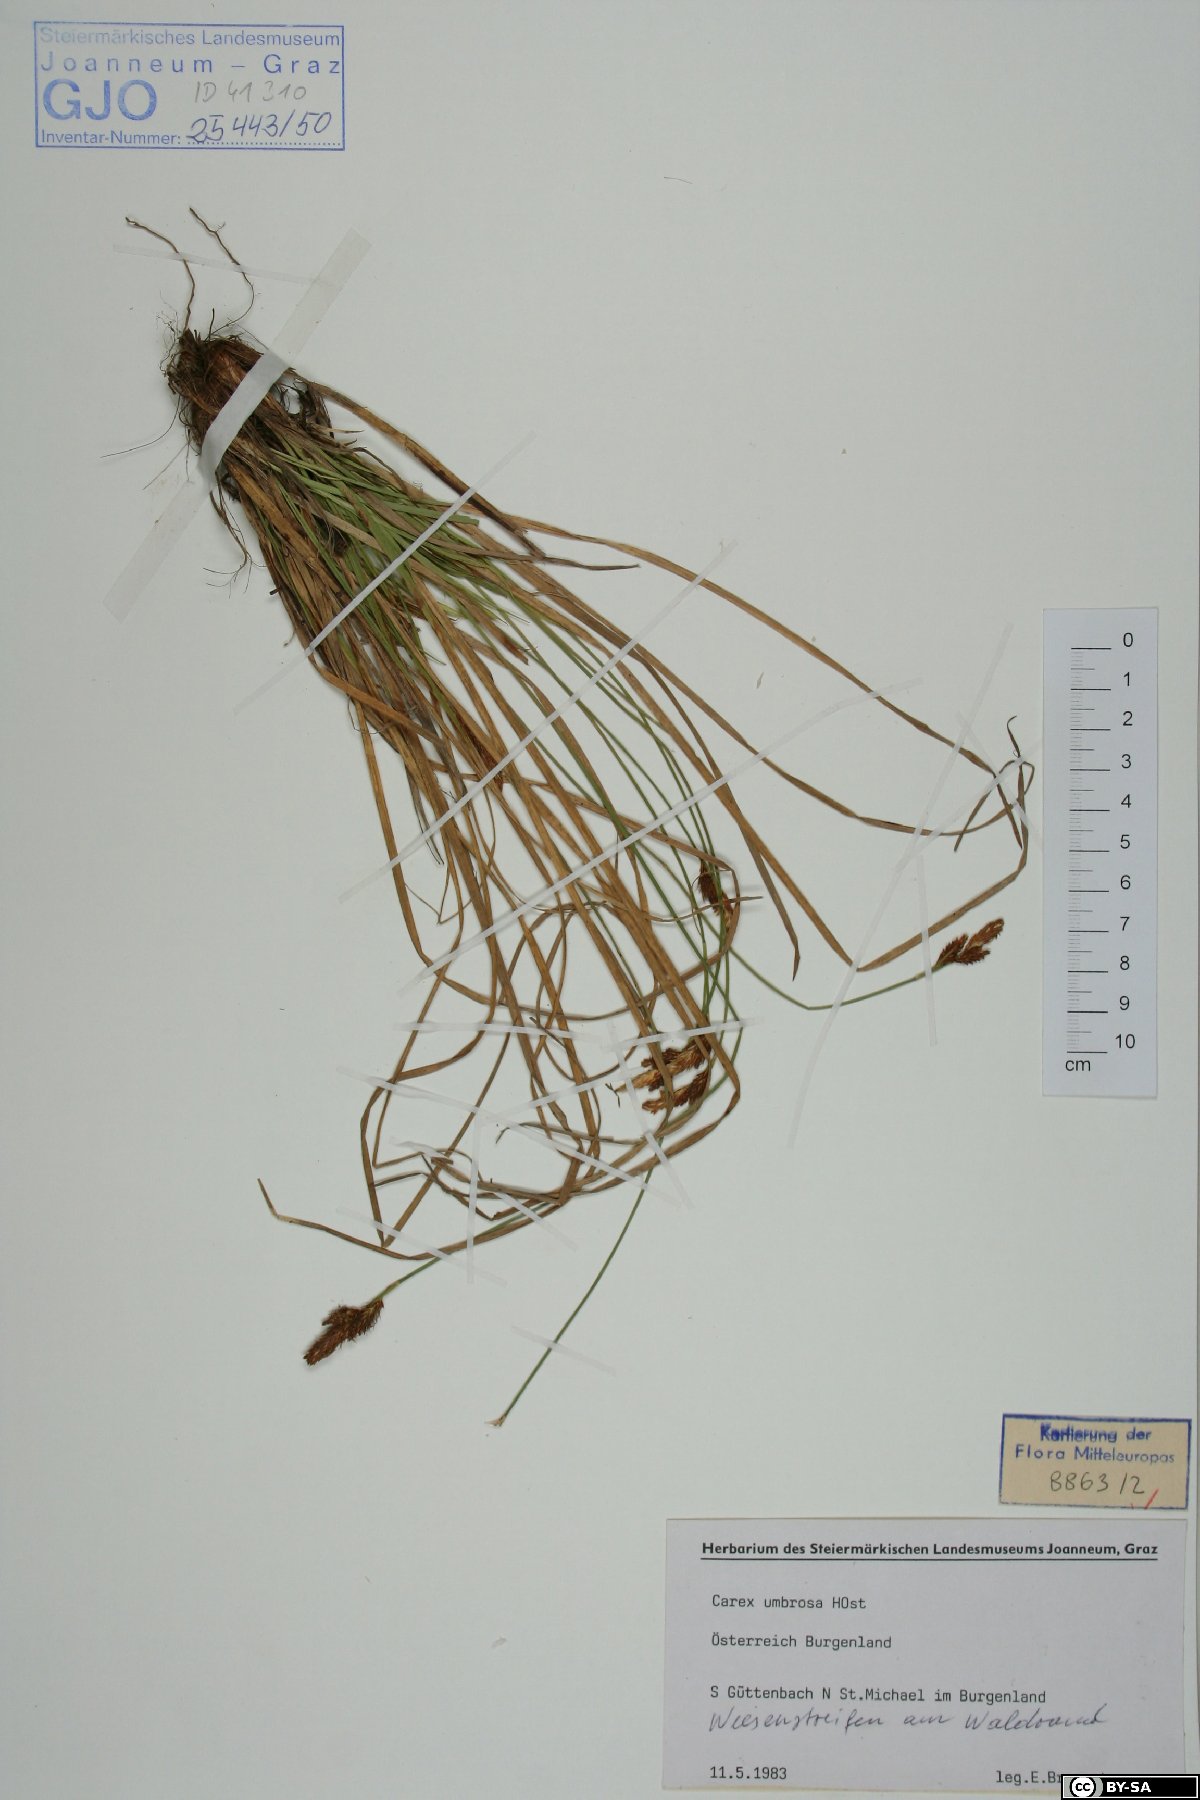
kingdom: Plantae
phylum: Tracheophyta
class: Liliopsida
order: Poales
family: Cyperaceae
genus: Carex
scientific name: Carex umbrosa
